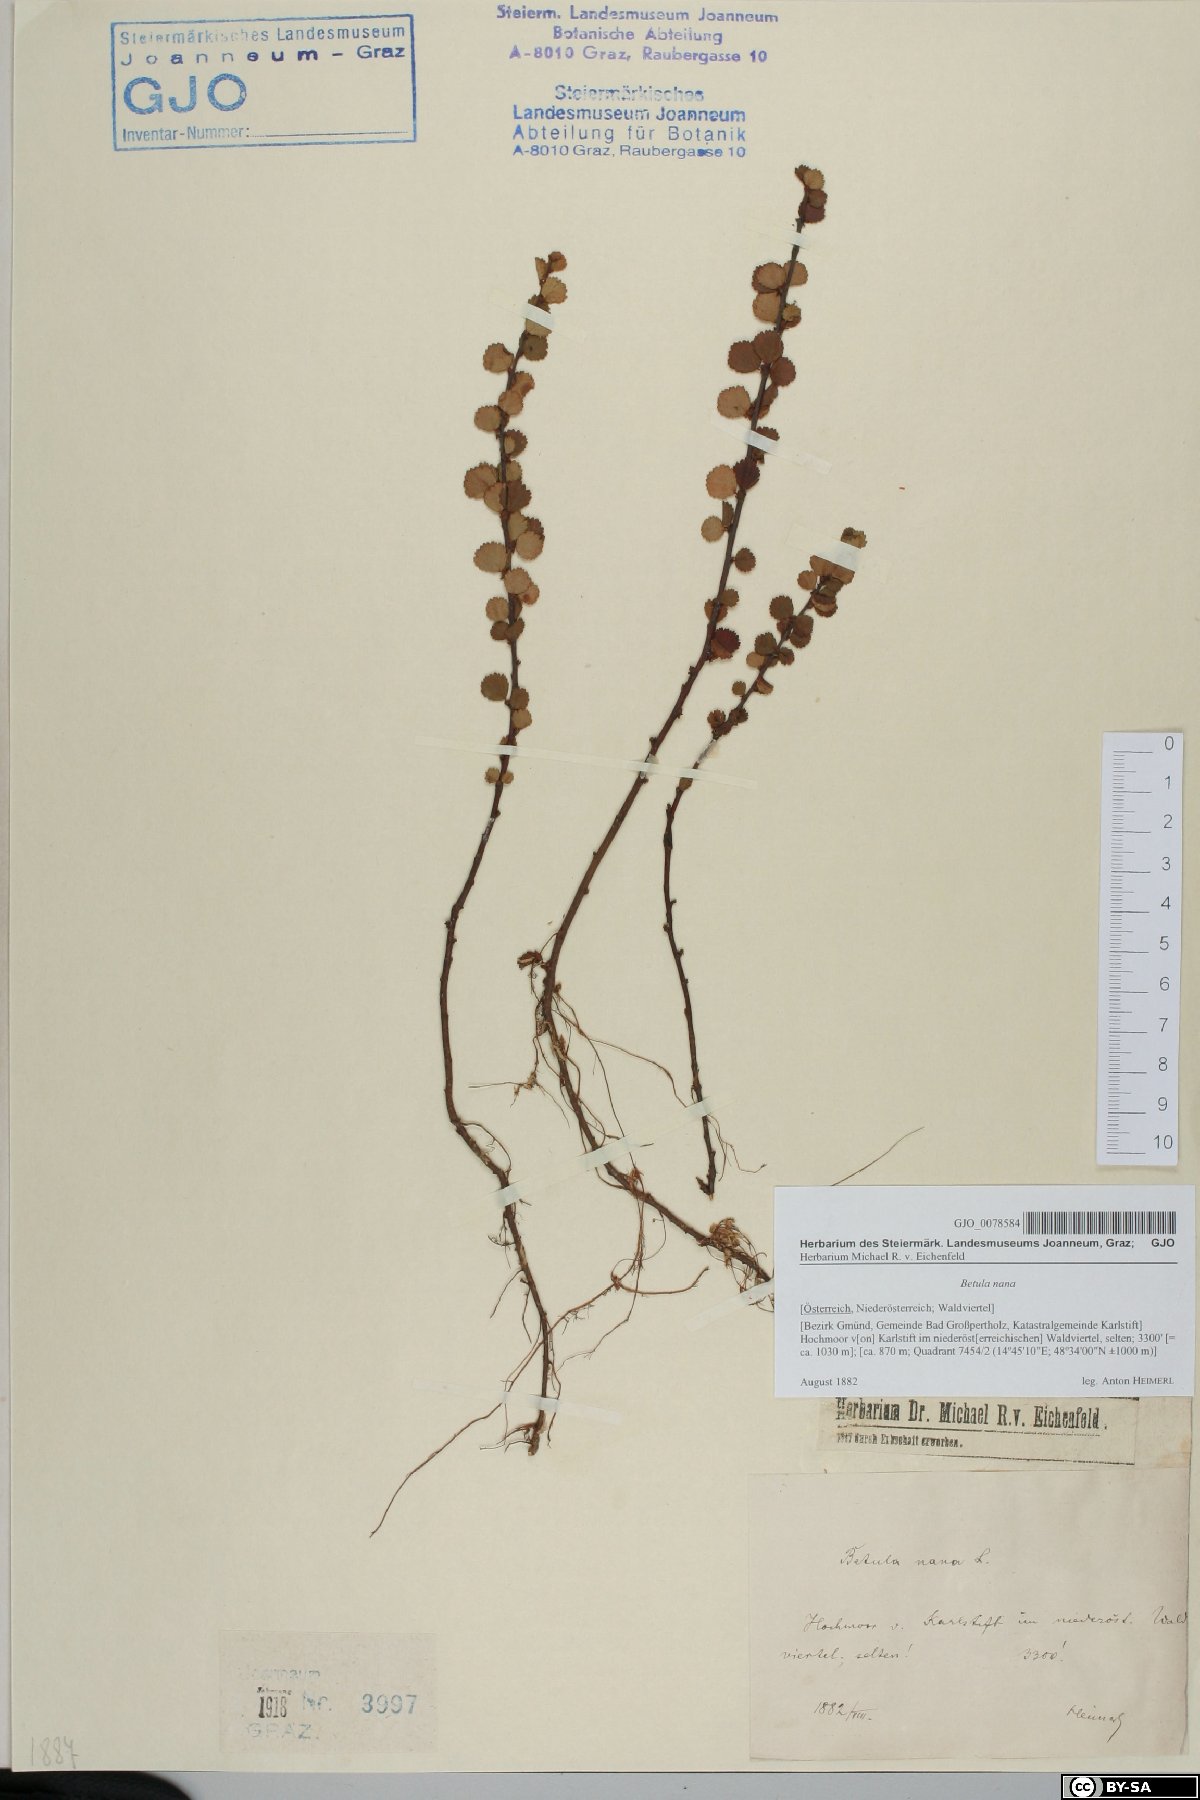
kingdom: Plantae
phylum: Tracheophyta
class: Magnoliopsida
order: Fagales
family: Betulaceae
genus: Betula
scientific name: Betula nana
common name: Arctic dwarf birch
